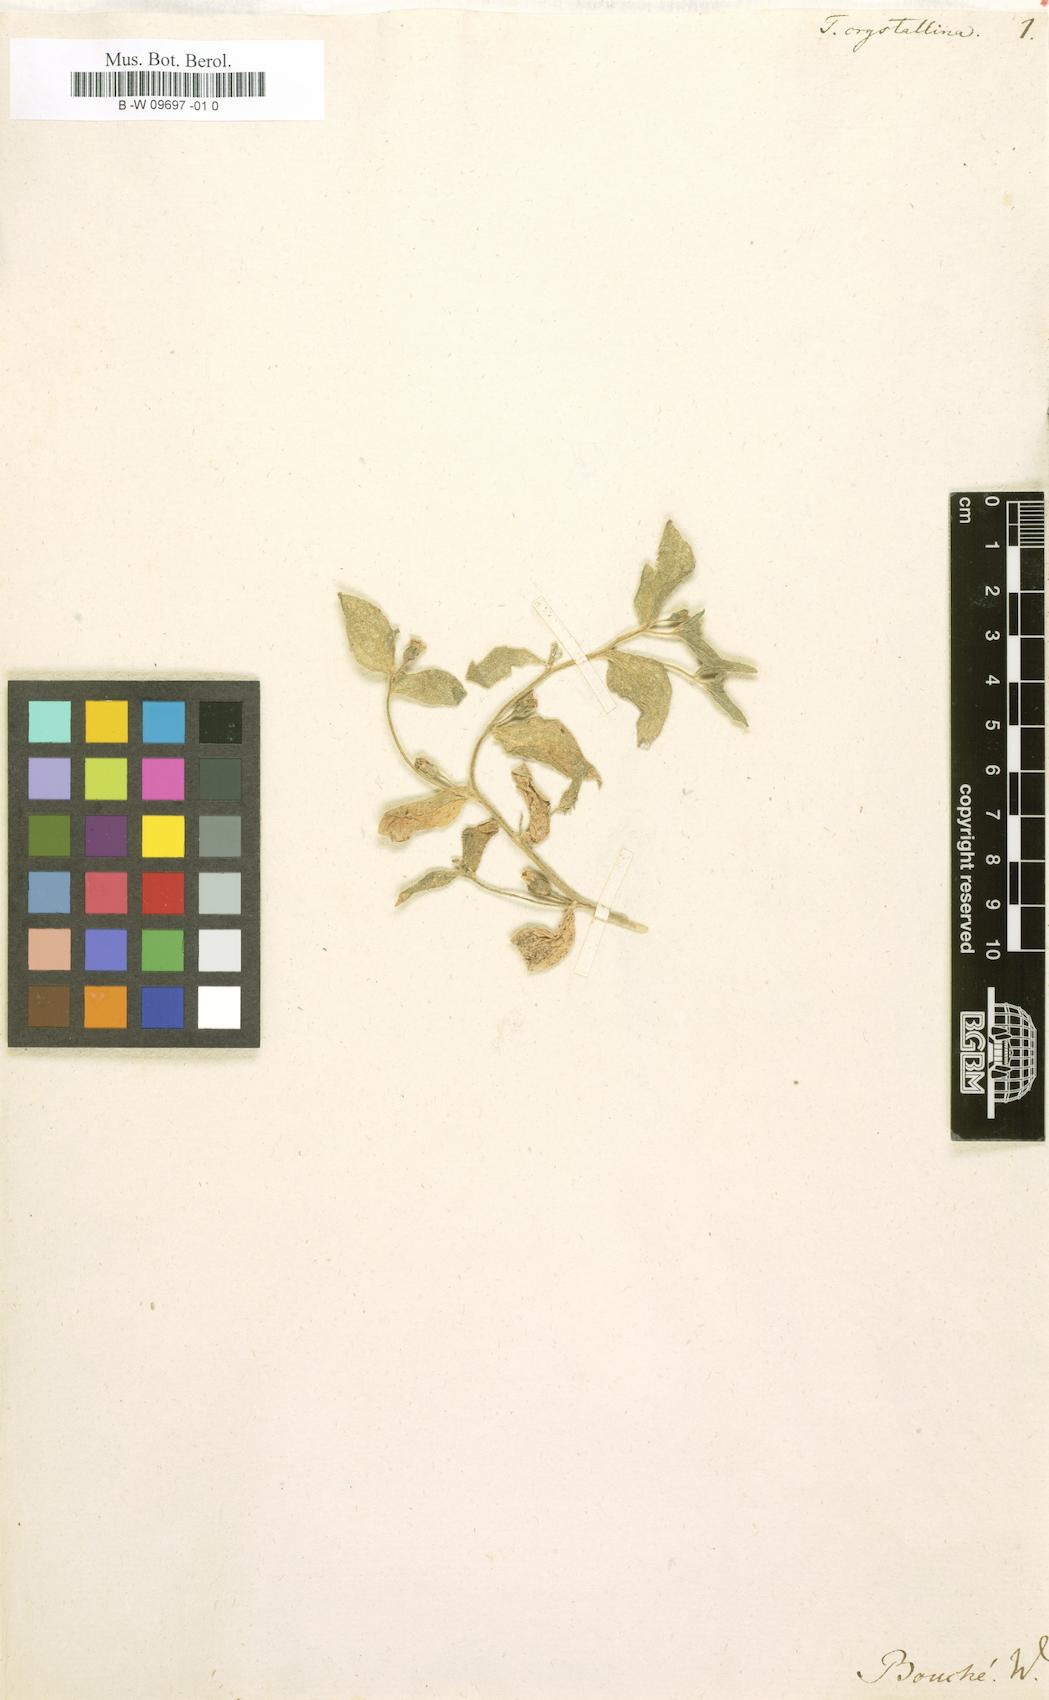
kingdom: Plantae
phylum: Tracheophyta
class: Magnoliopsida
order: Caryophyllales
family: Aizoaceae
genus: Tetragonia
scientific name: Tetragonia crystallina
